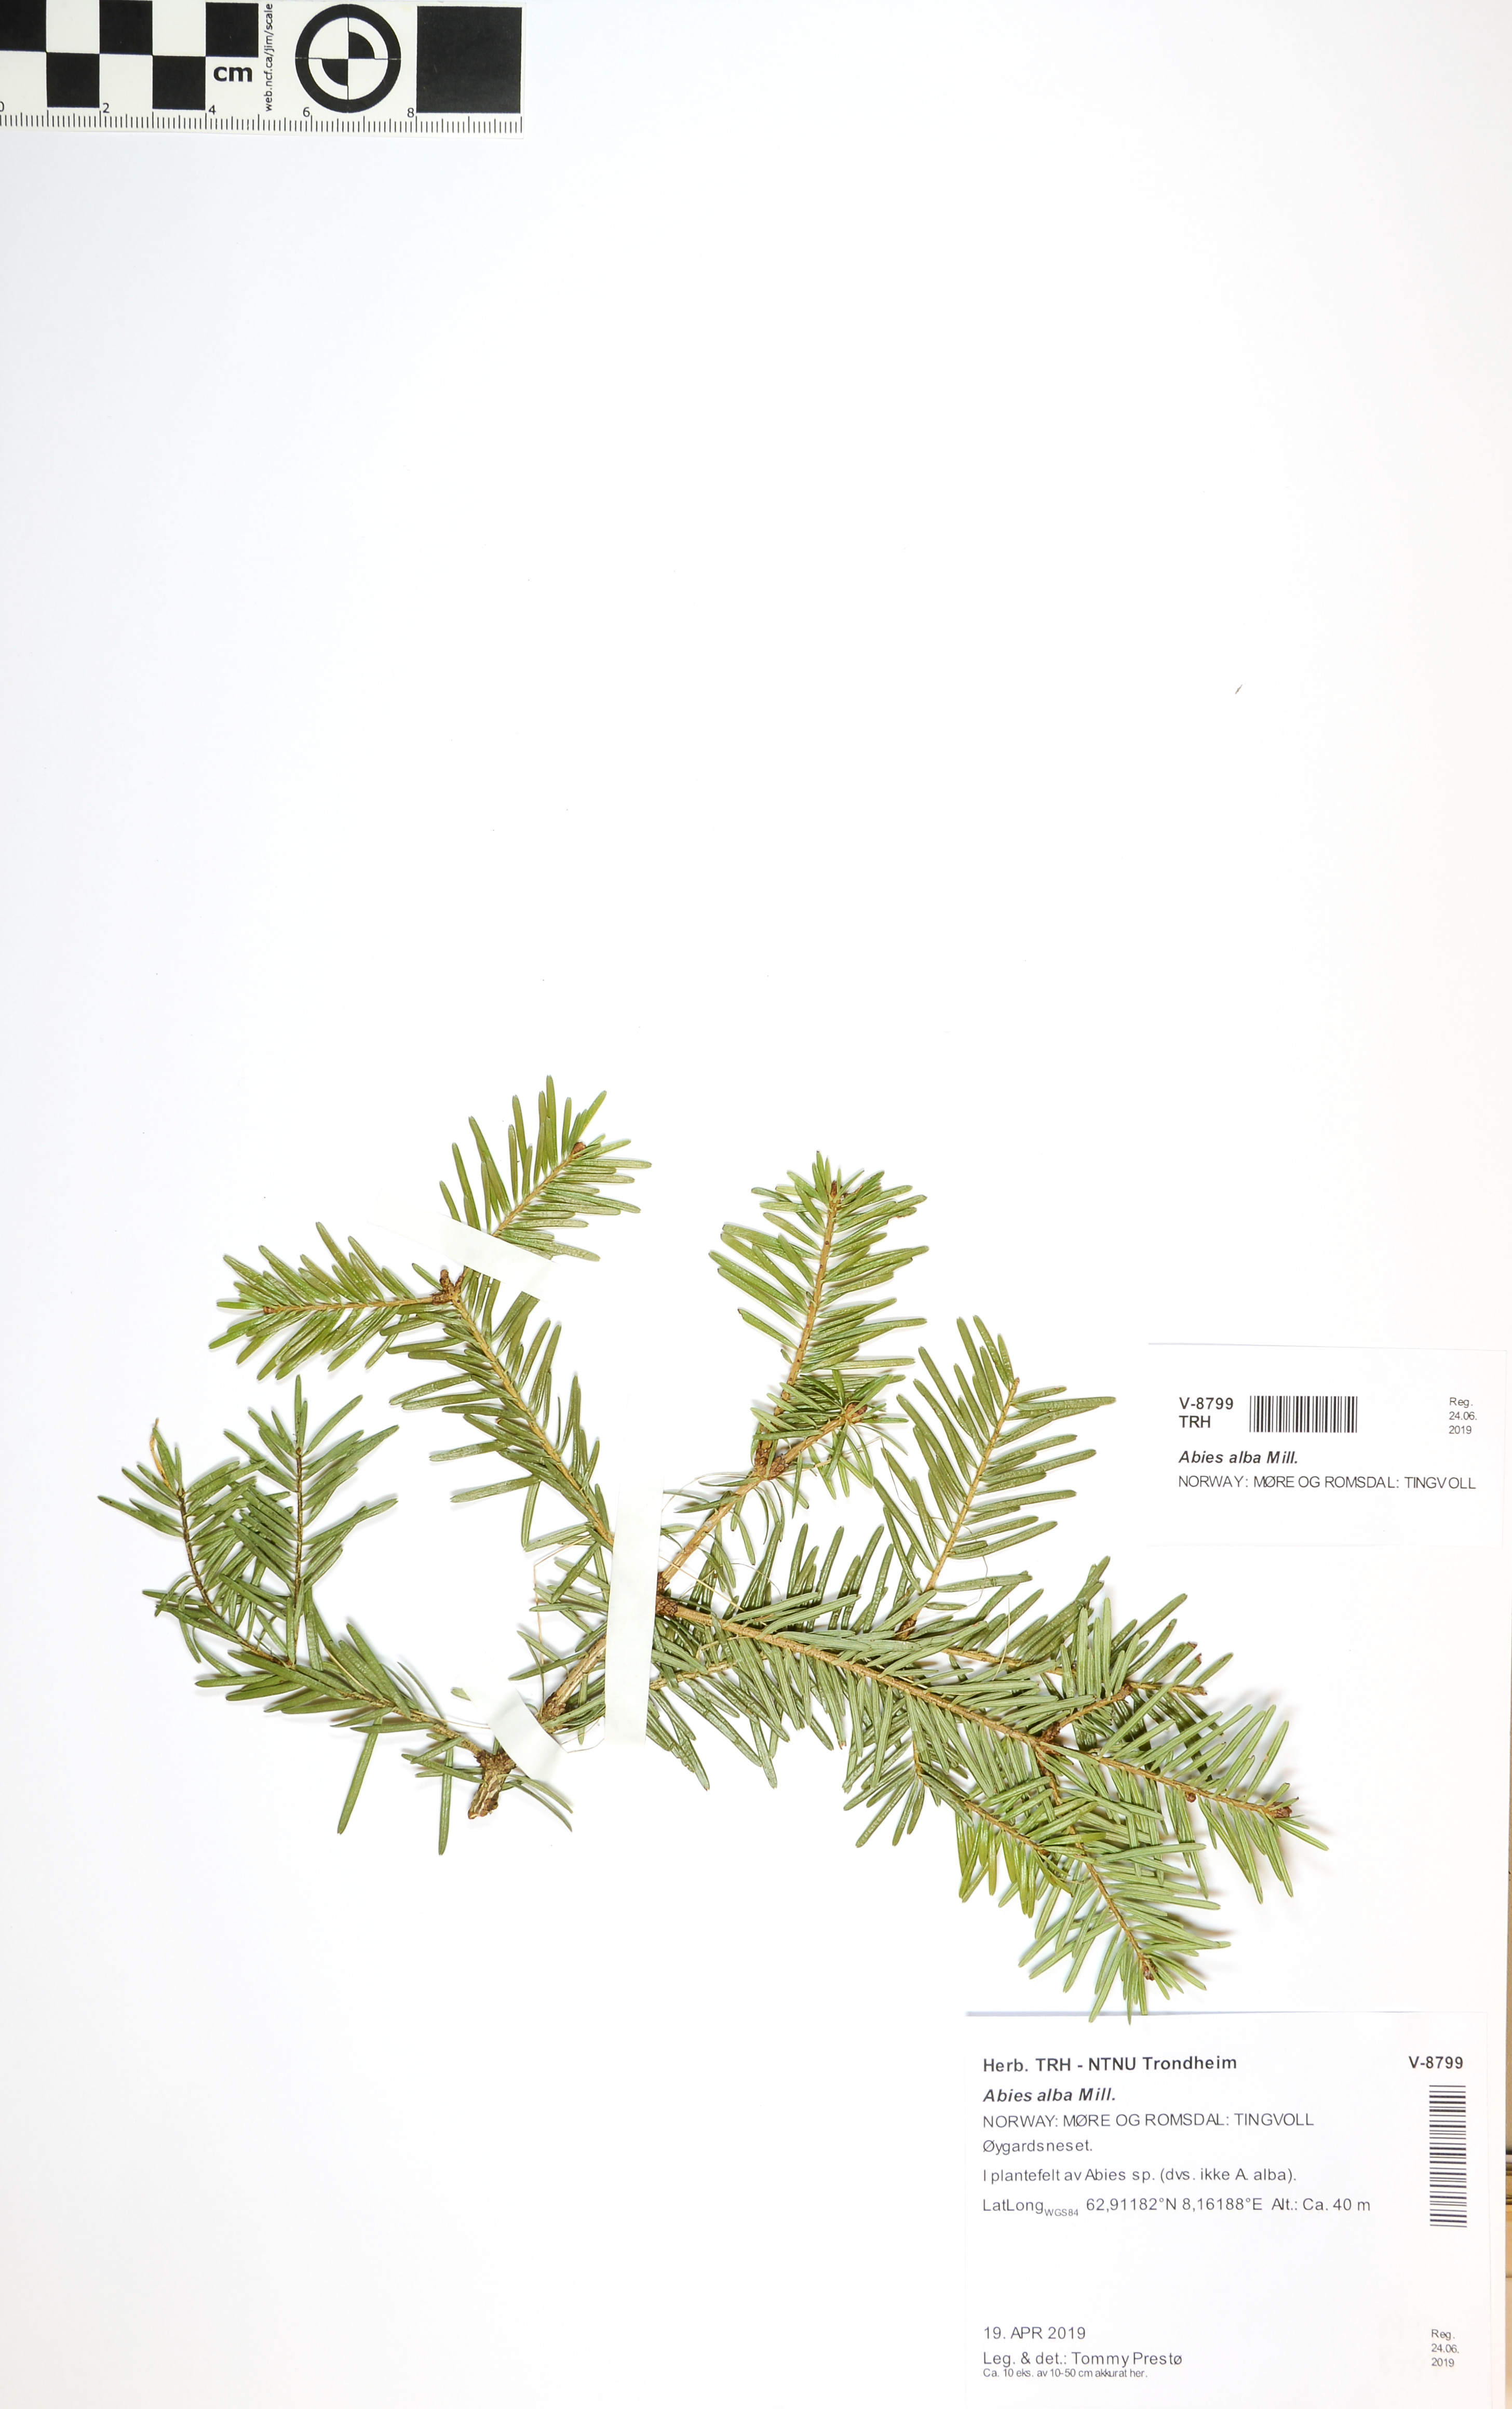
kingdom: Plantae
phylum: Tracheophyta
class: Pinopsida
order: Pinales
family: Pinaceae
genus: Abies
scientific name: Abies alba
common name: Silver fir
